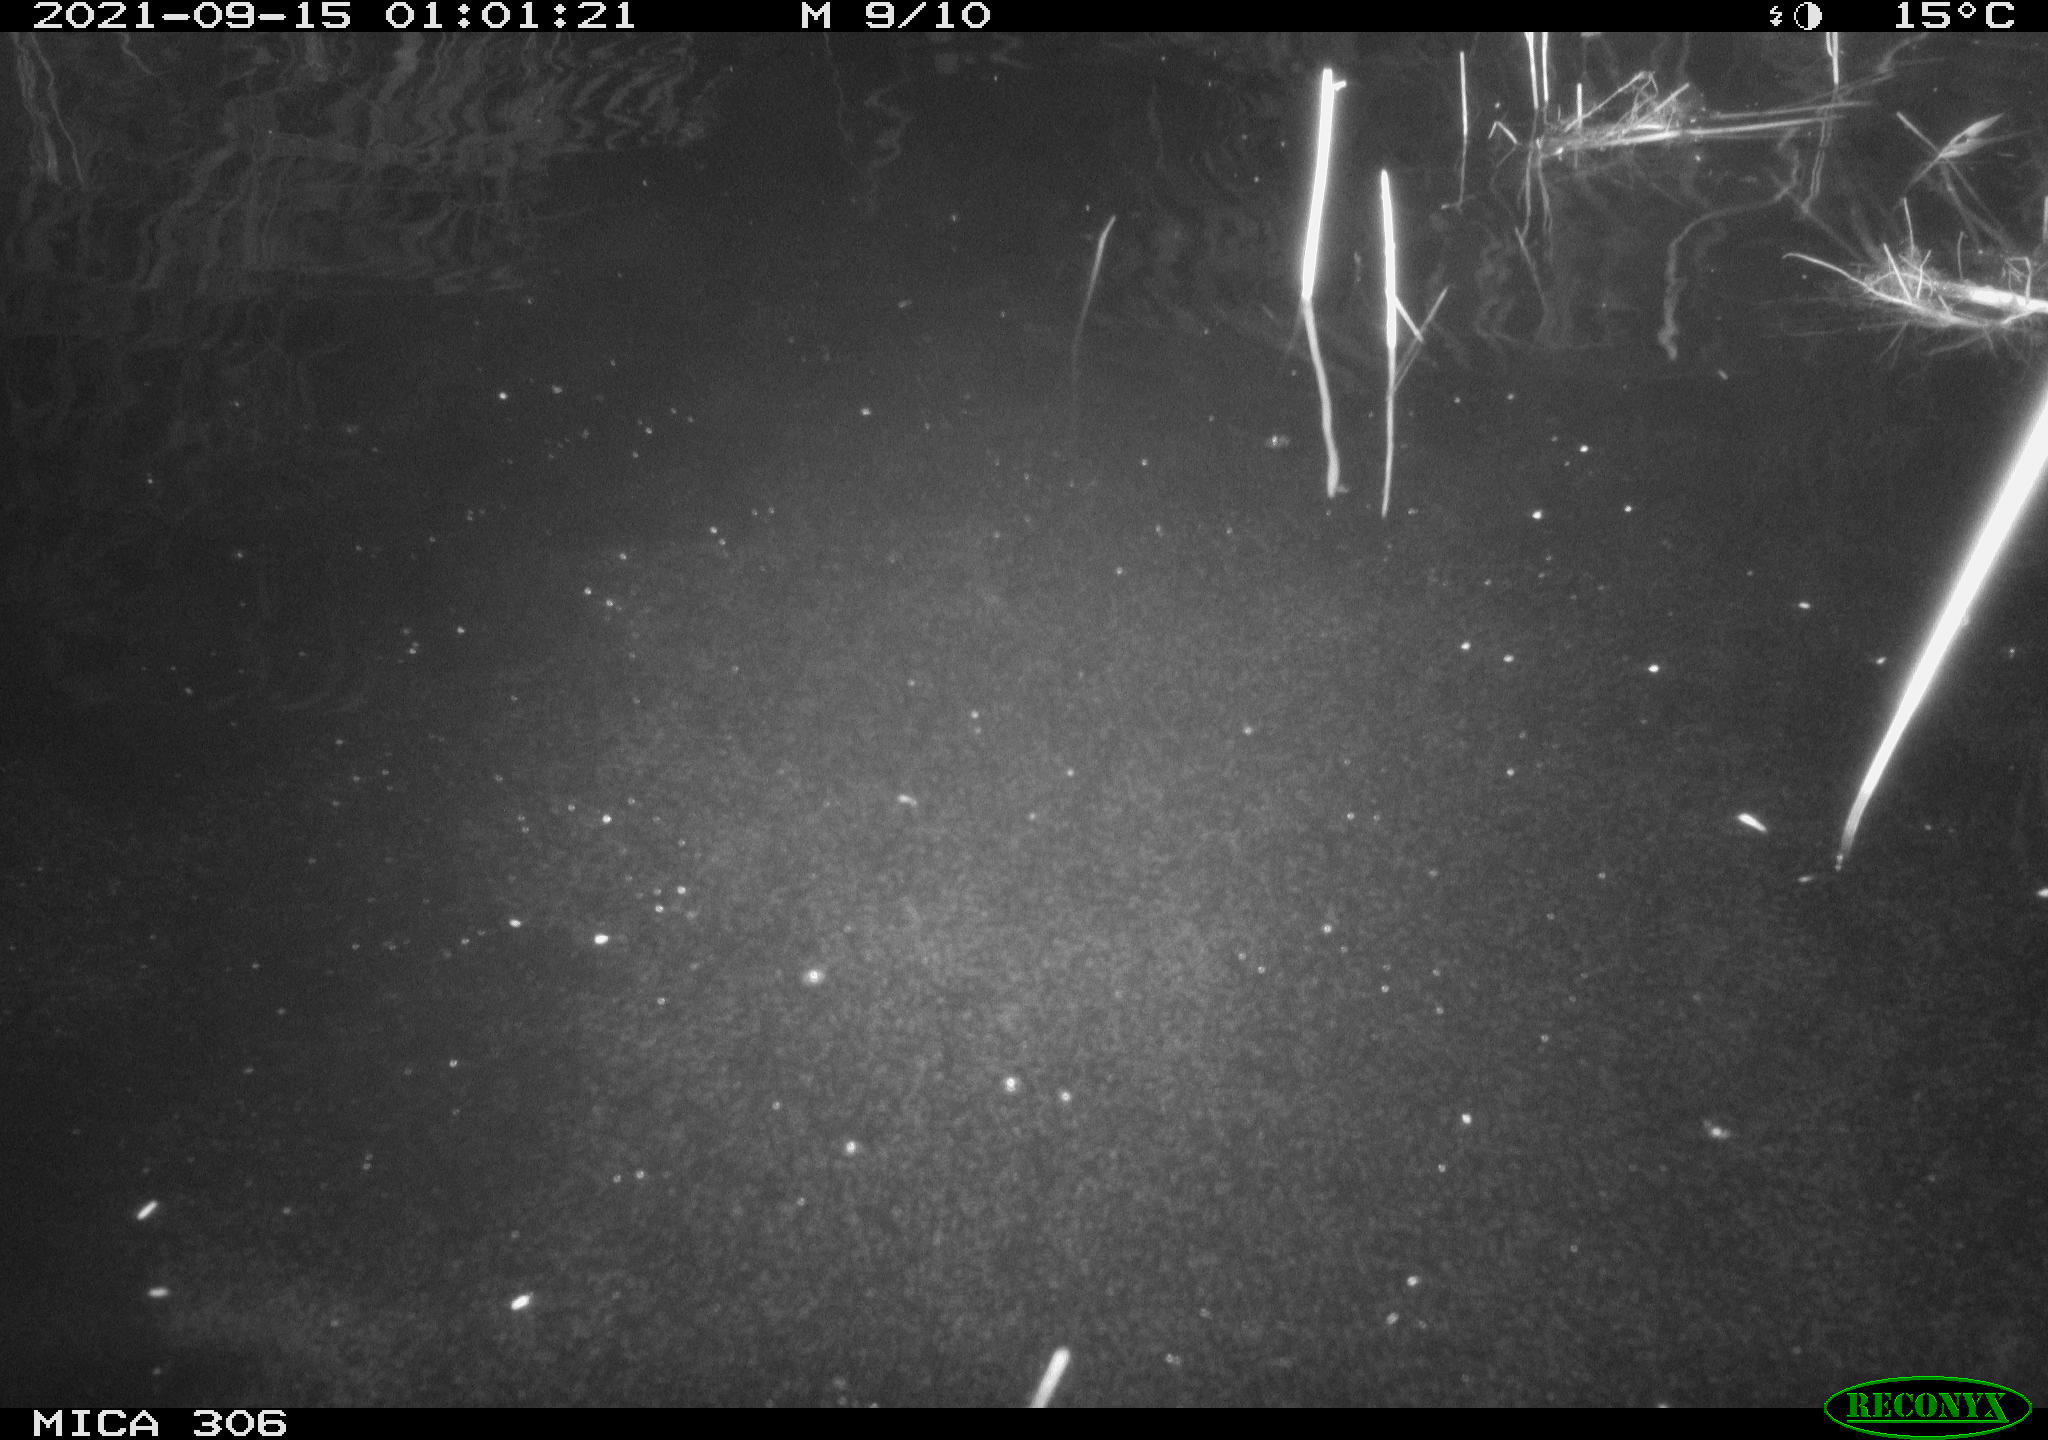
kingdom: Animalia
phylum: Chordata
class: Mammalia
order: Rodentia
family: Cricetidae
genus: Ondatra
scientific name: Ondatra zibethicus
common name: Muskrat
